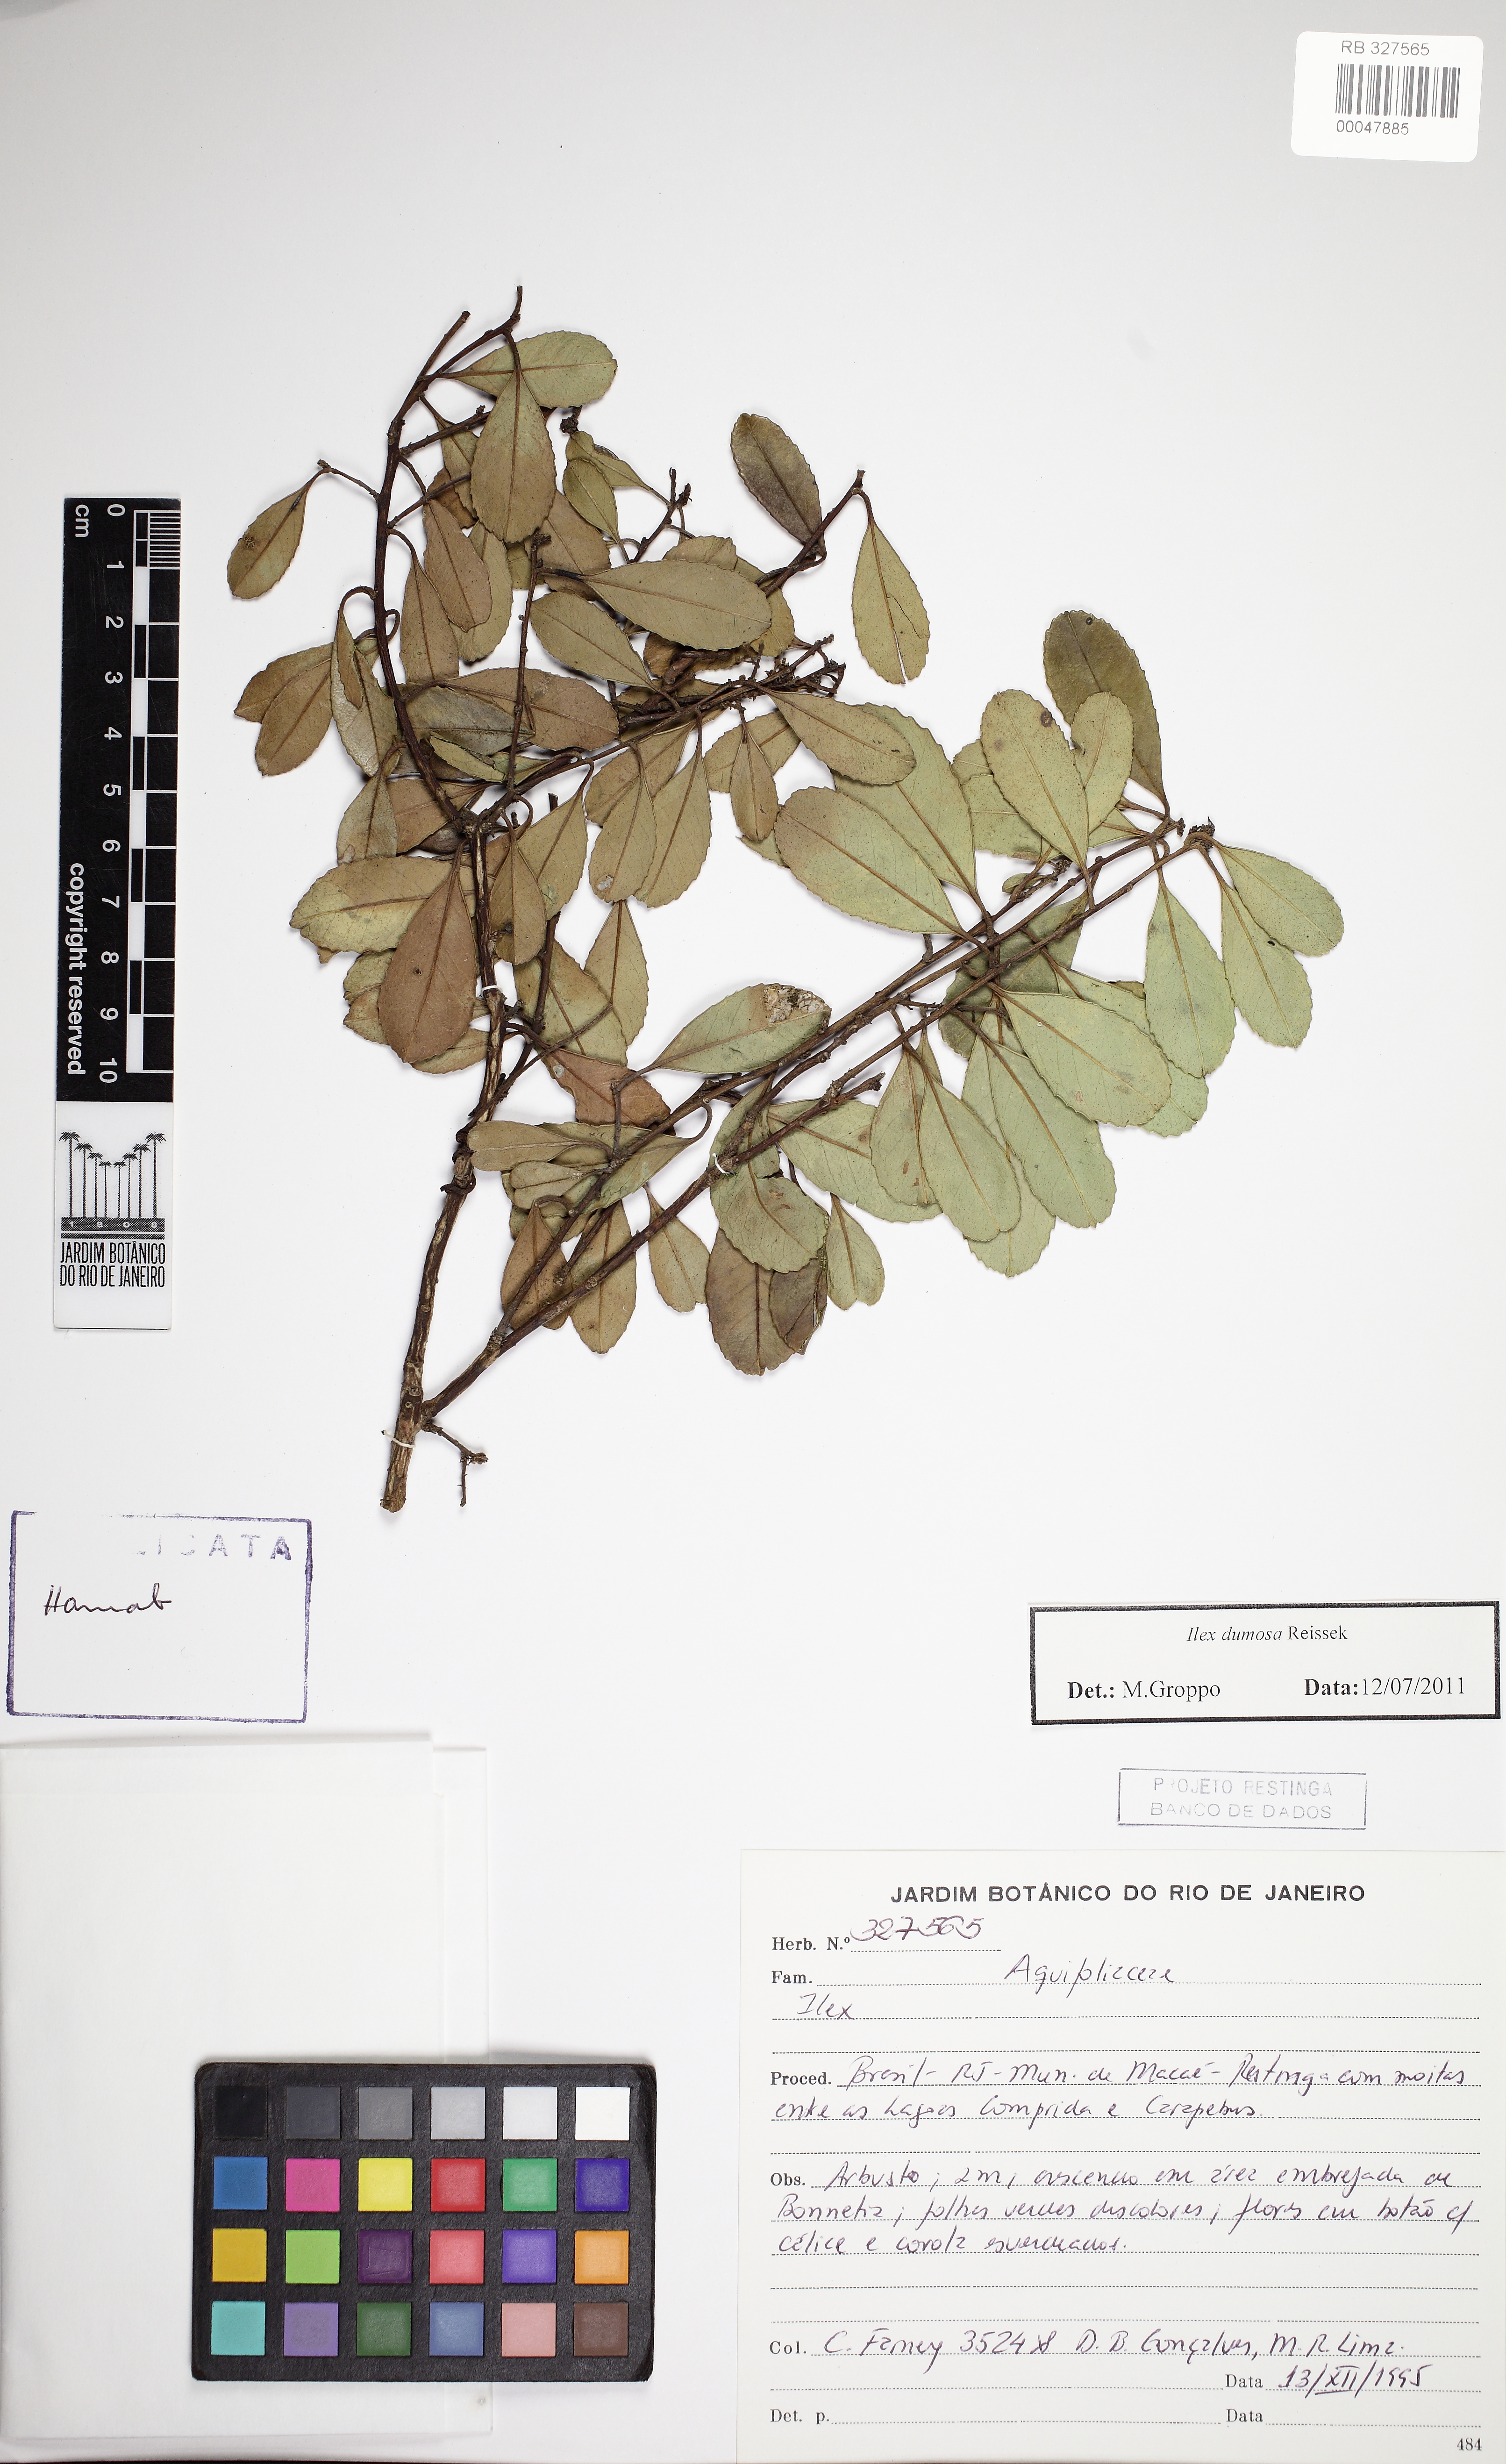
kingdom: Plantae
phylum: Tracheophyta
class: Magnoliopsida
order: Aquifoliales
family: Aquifoliaceae
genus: Ilex
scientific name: Ilex dumosa
